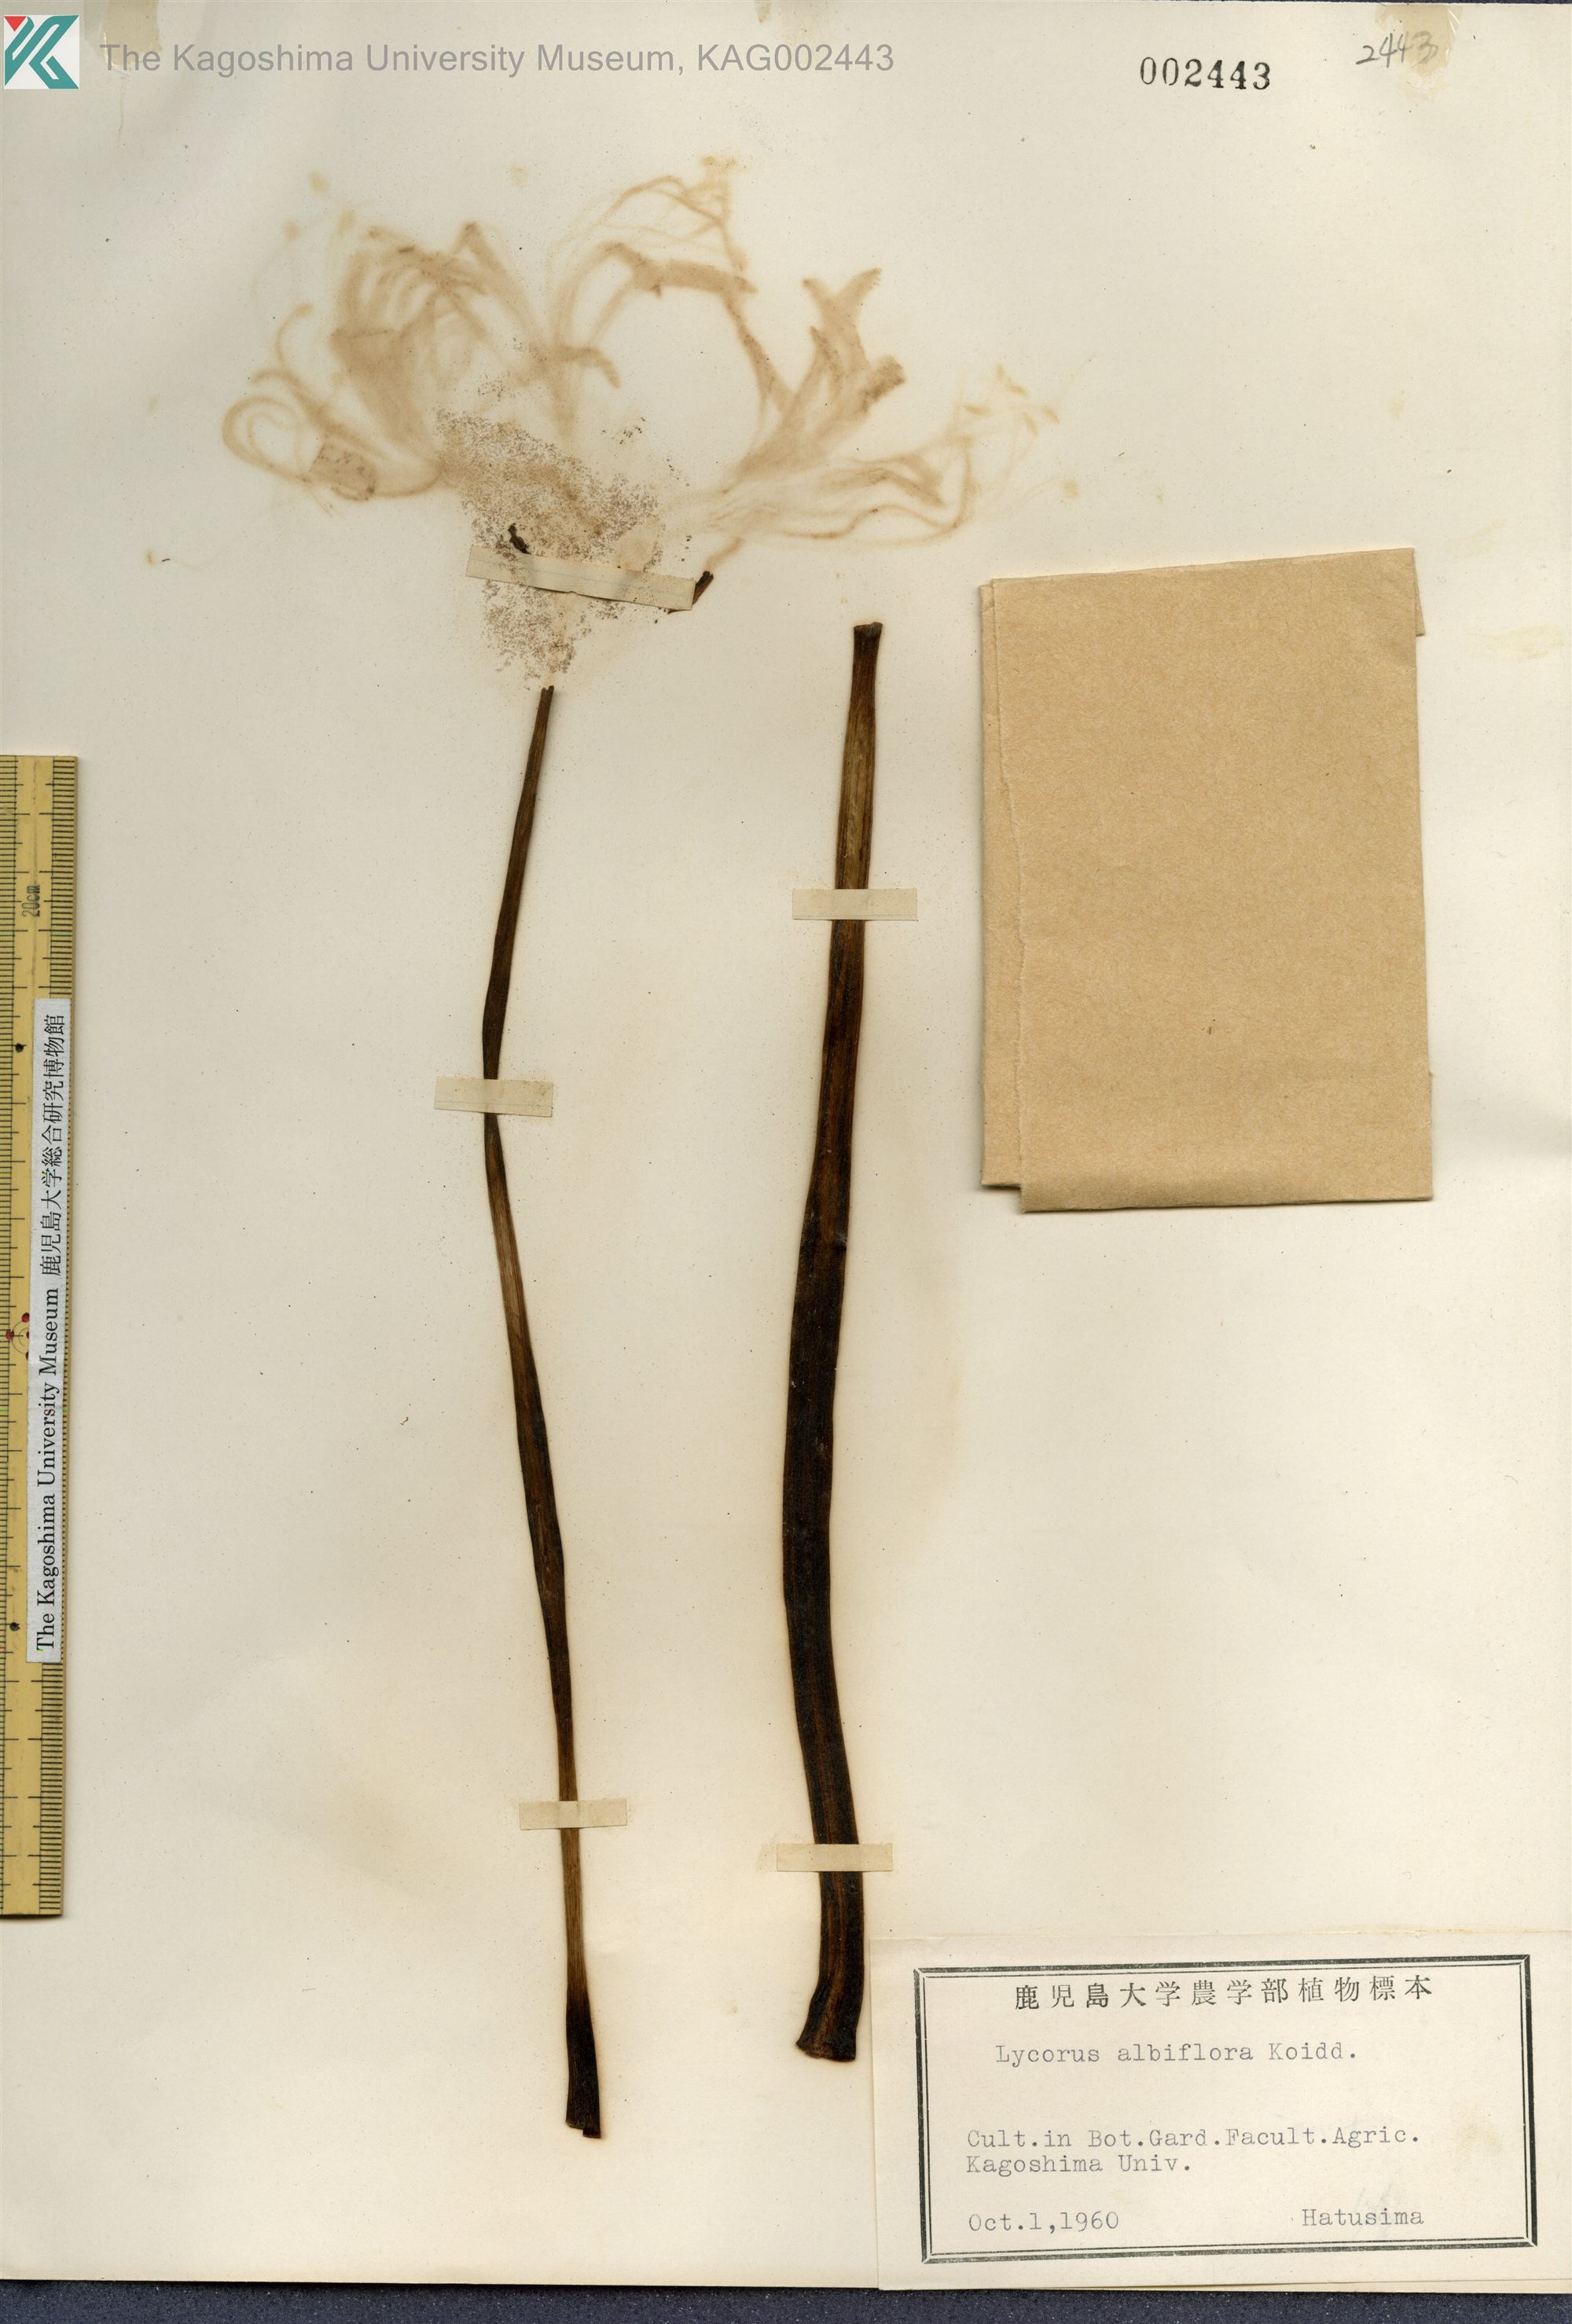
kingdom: Plantae
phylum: Tracheophyta
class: Liliopsida
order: Asparagales
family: Amaryllidaceae
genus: Lycoris
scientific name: Lycoris albiflora
